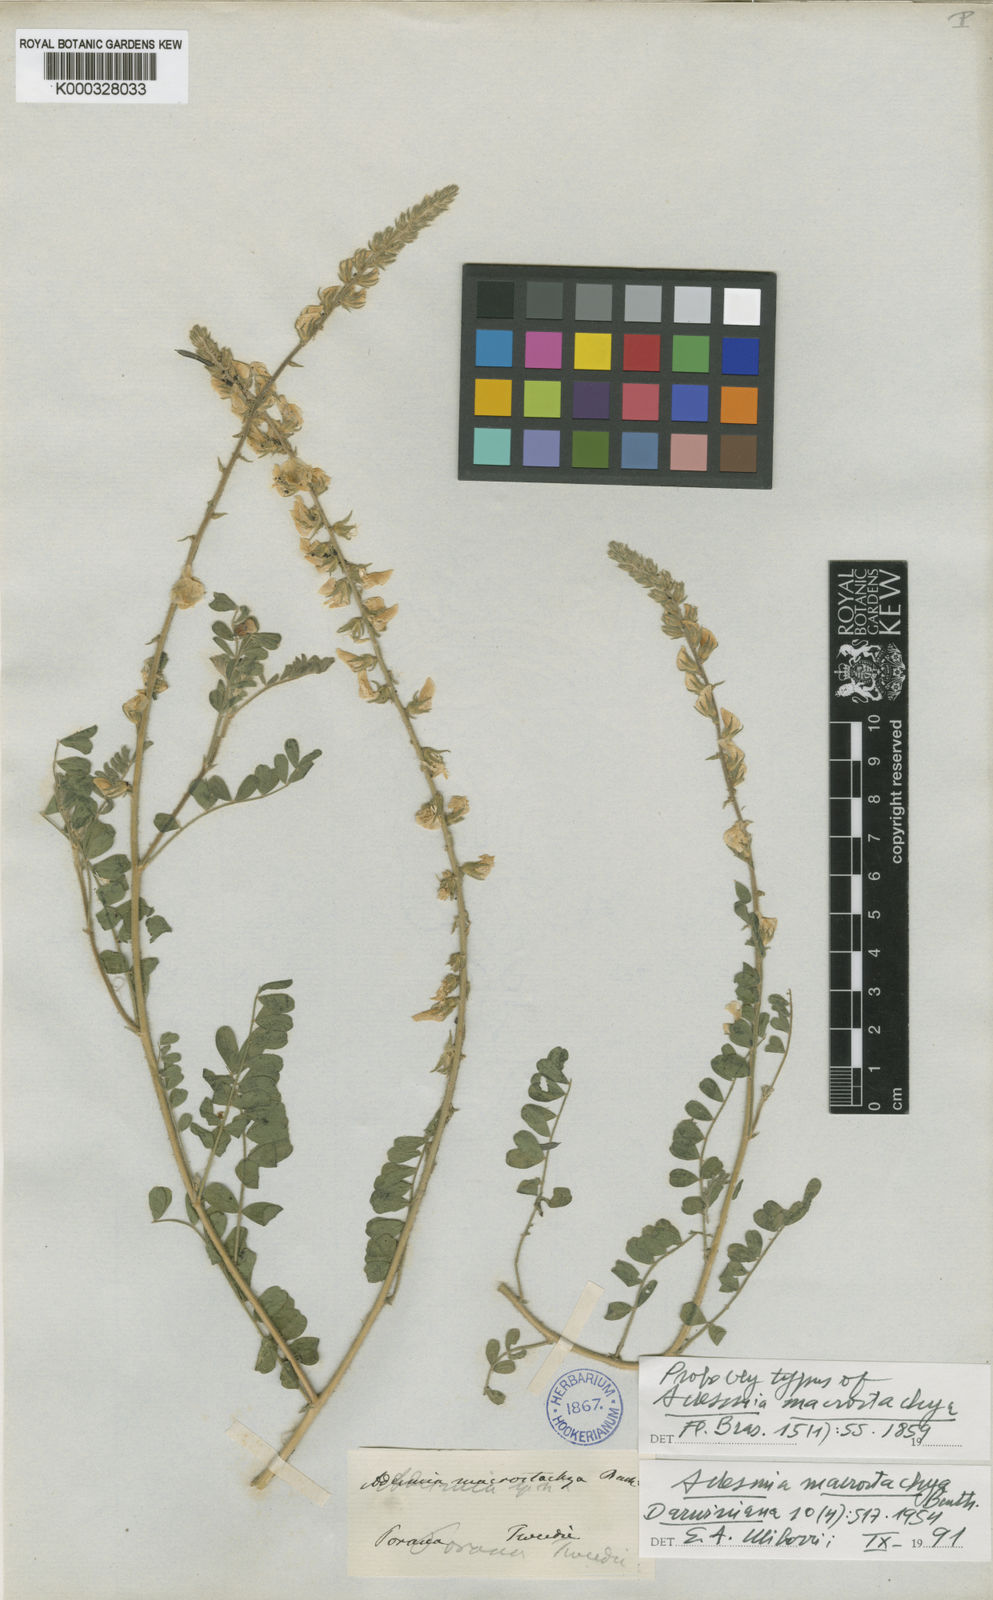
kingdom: Plantae
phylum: Tracheophyta
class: Magnoliopsida
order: Fabales
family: Fabaceae
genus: Adesmia
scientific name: Adesmia macrostachya
